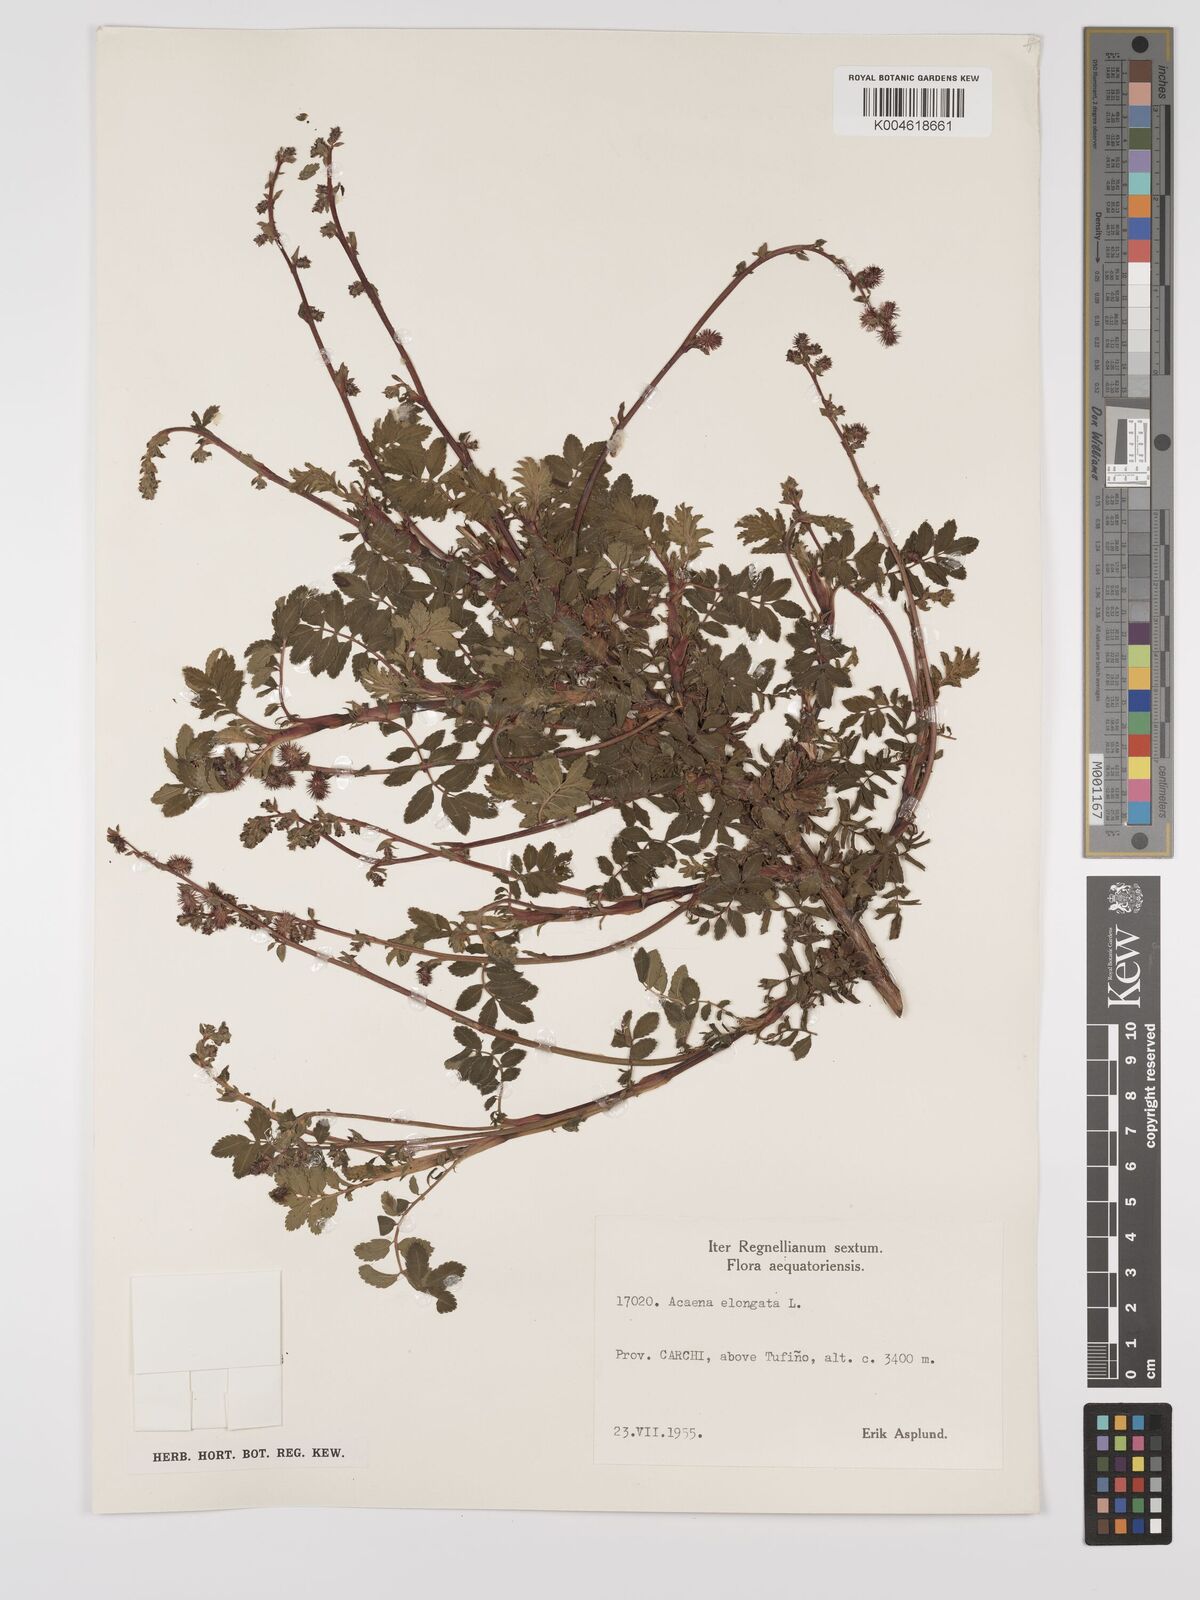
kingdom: Plantae
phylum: Tracheophyta
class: Magnoliopsida
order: Rosales
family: Rosaceae
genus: Acaena
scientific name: Acaena elongata
